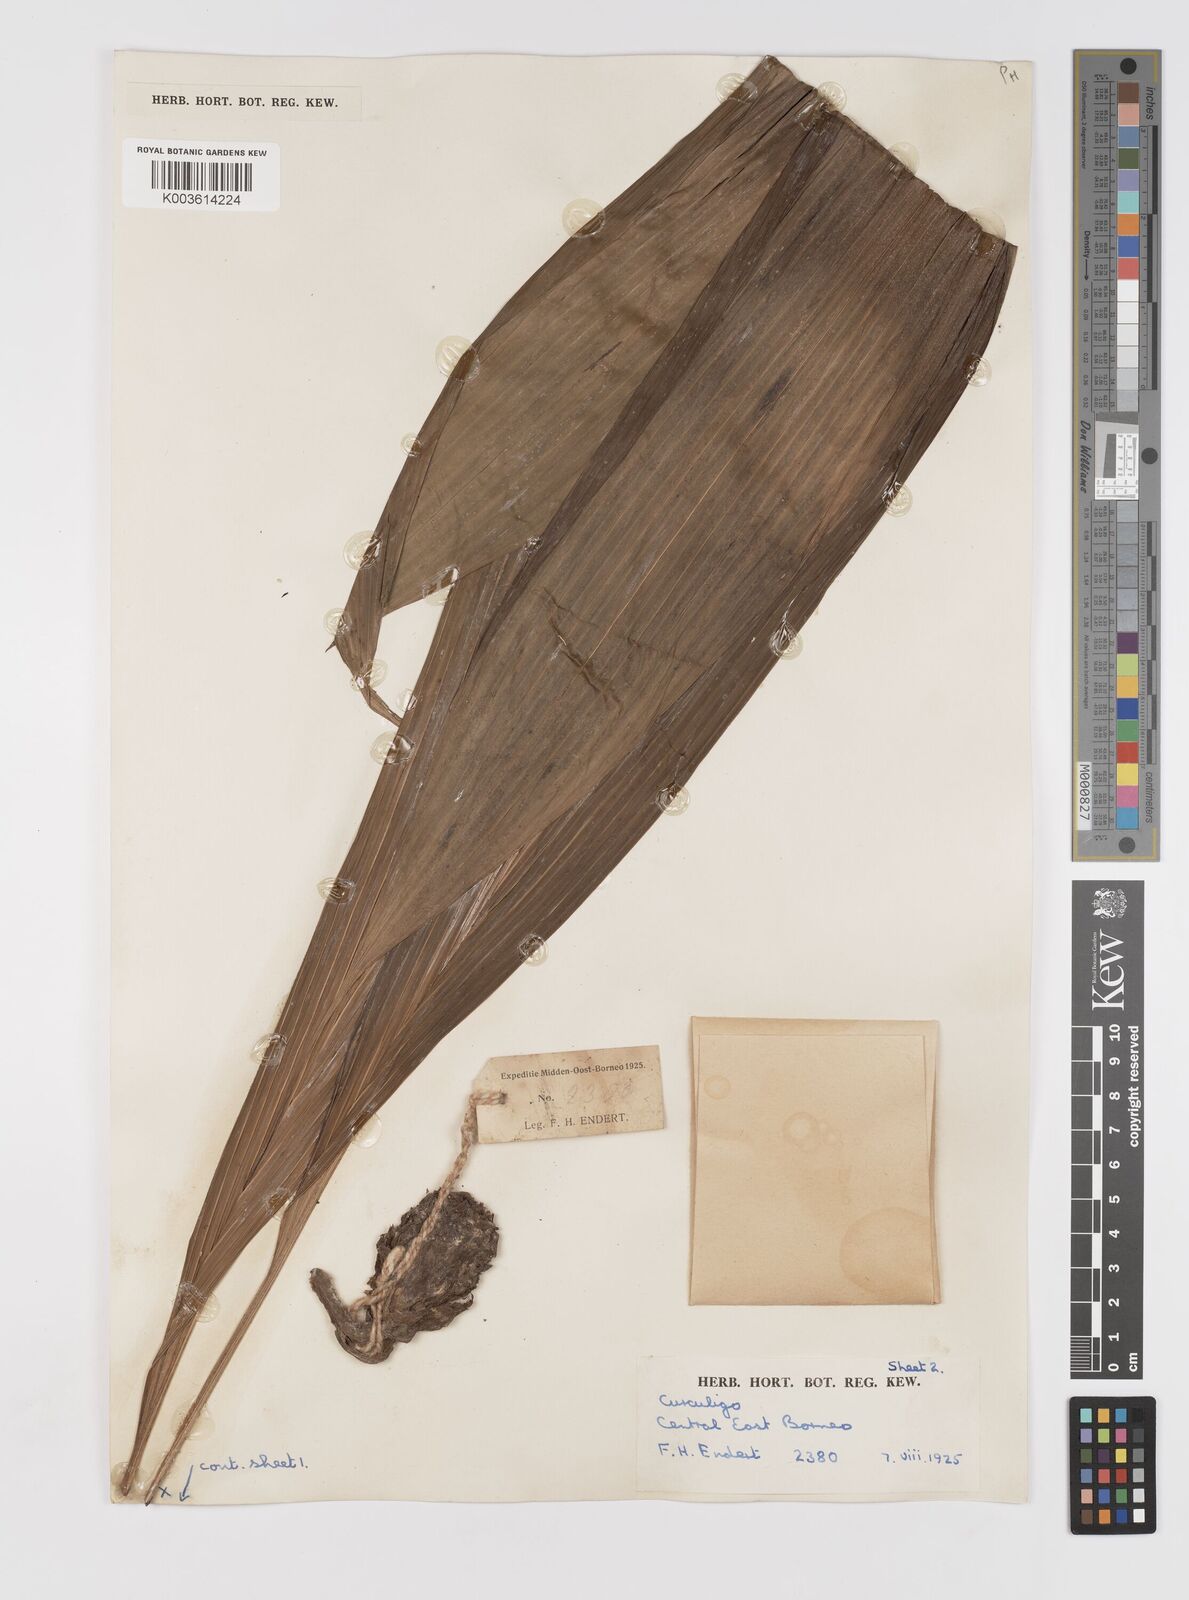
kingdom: Plantae
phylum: Tracheophyta
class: Liliopsida
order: Asparagales
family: Hypoxidaceae
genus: Curculigo
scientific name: Curculigo
